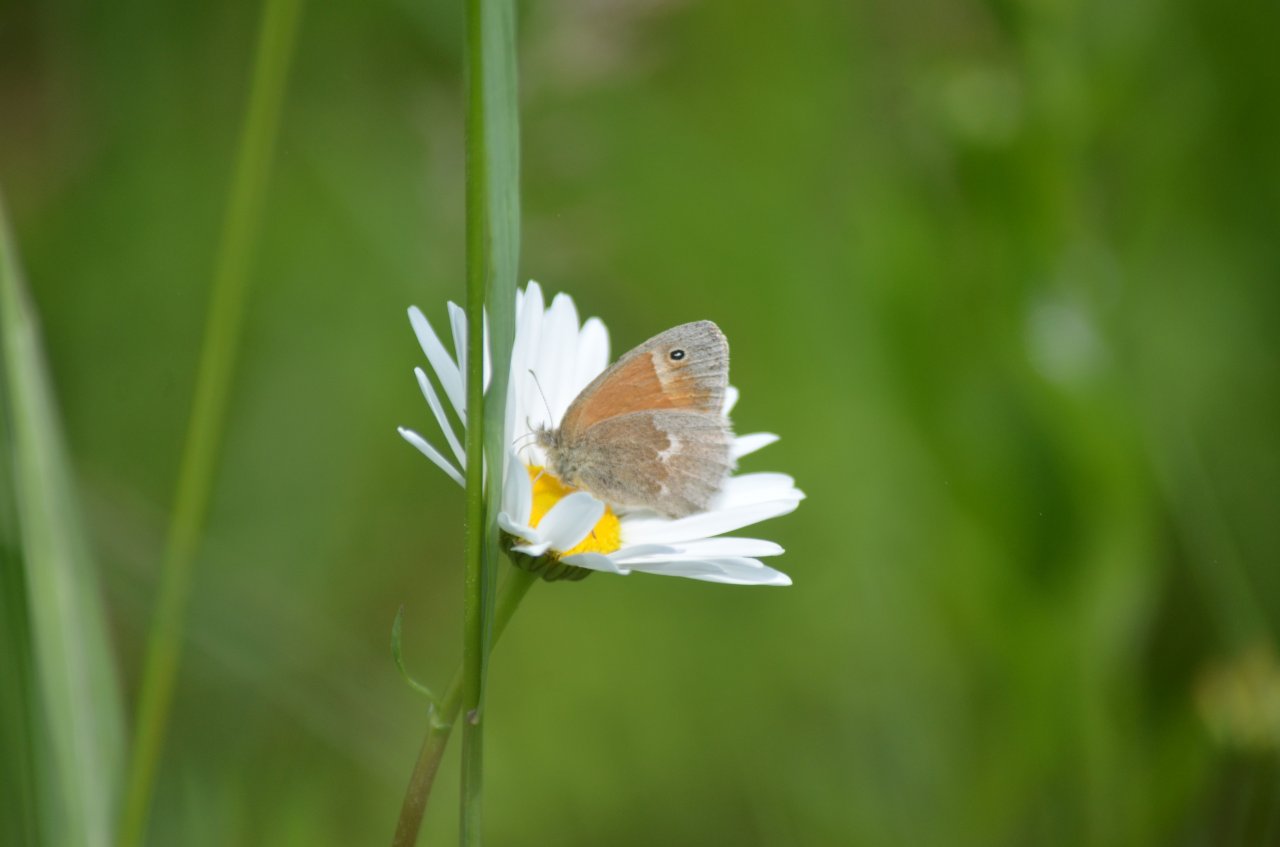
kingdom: Animalia
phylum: Arthropoda
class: Insecta
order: Lepidoptera
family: Nymphalidae
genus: Coenonympha
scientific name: Coenonympha tullia
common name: Large Heath
